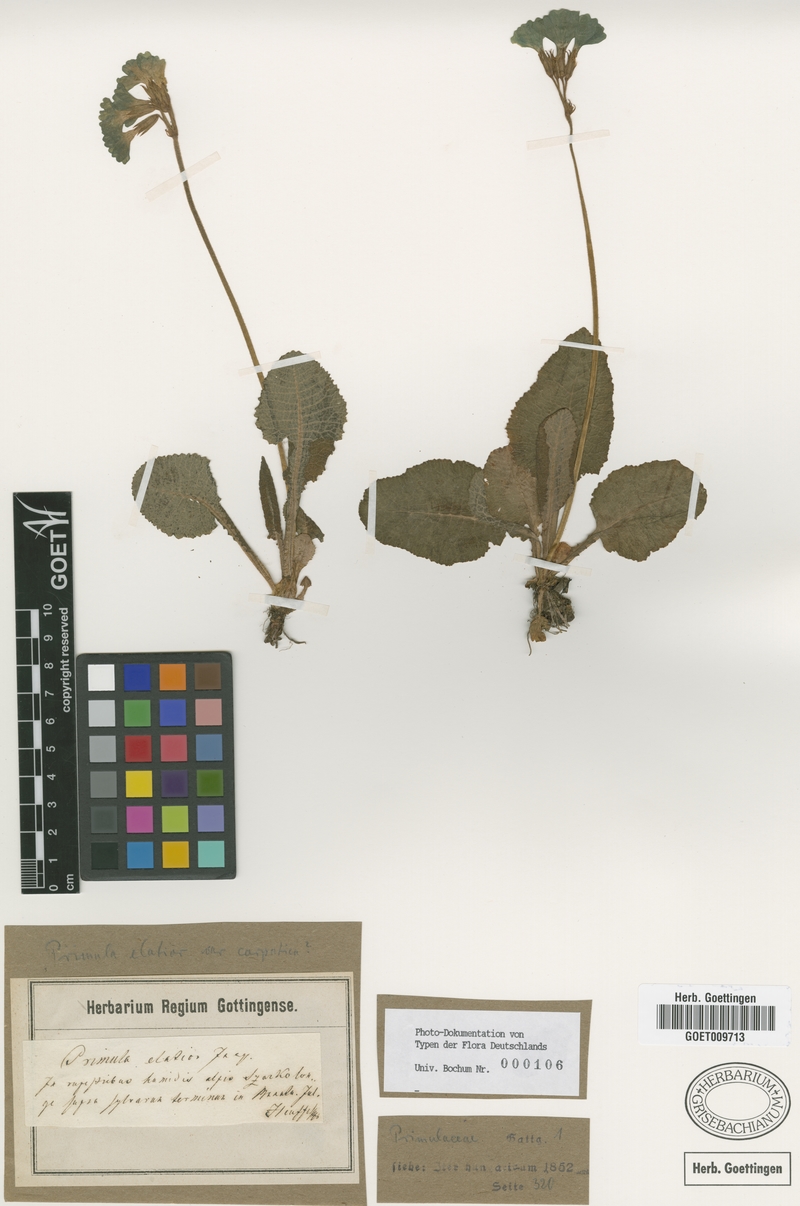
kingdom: Plantae
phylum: Tracheophyta
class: Magnoliopsida
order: Ericales
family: Primulaceae
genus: Primula
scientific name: Primula elatior
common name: Oxlip
